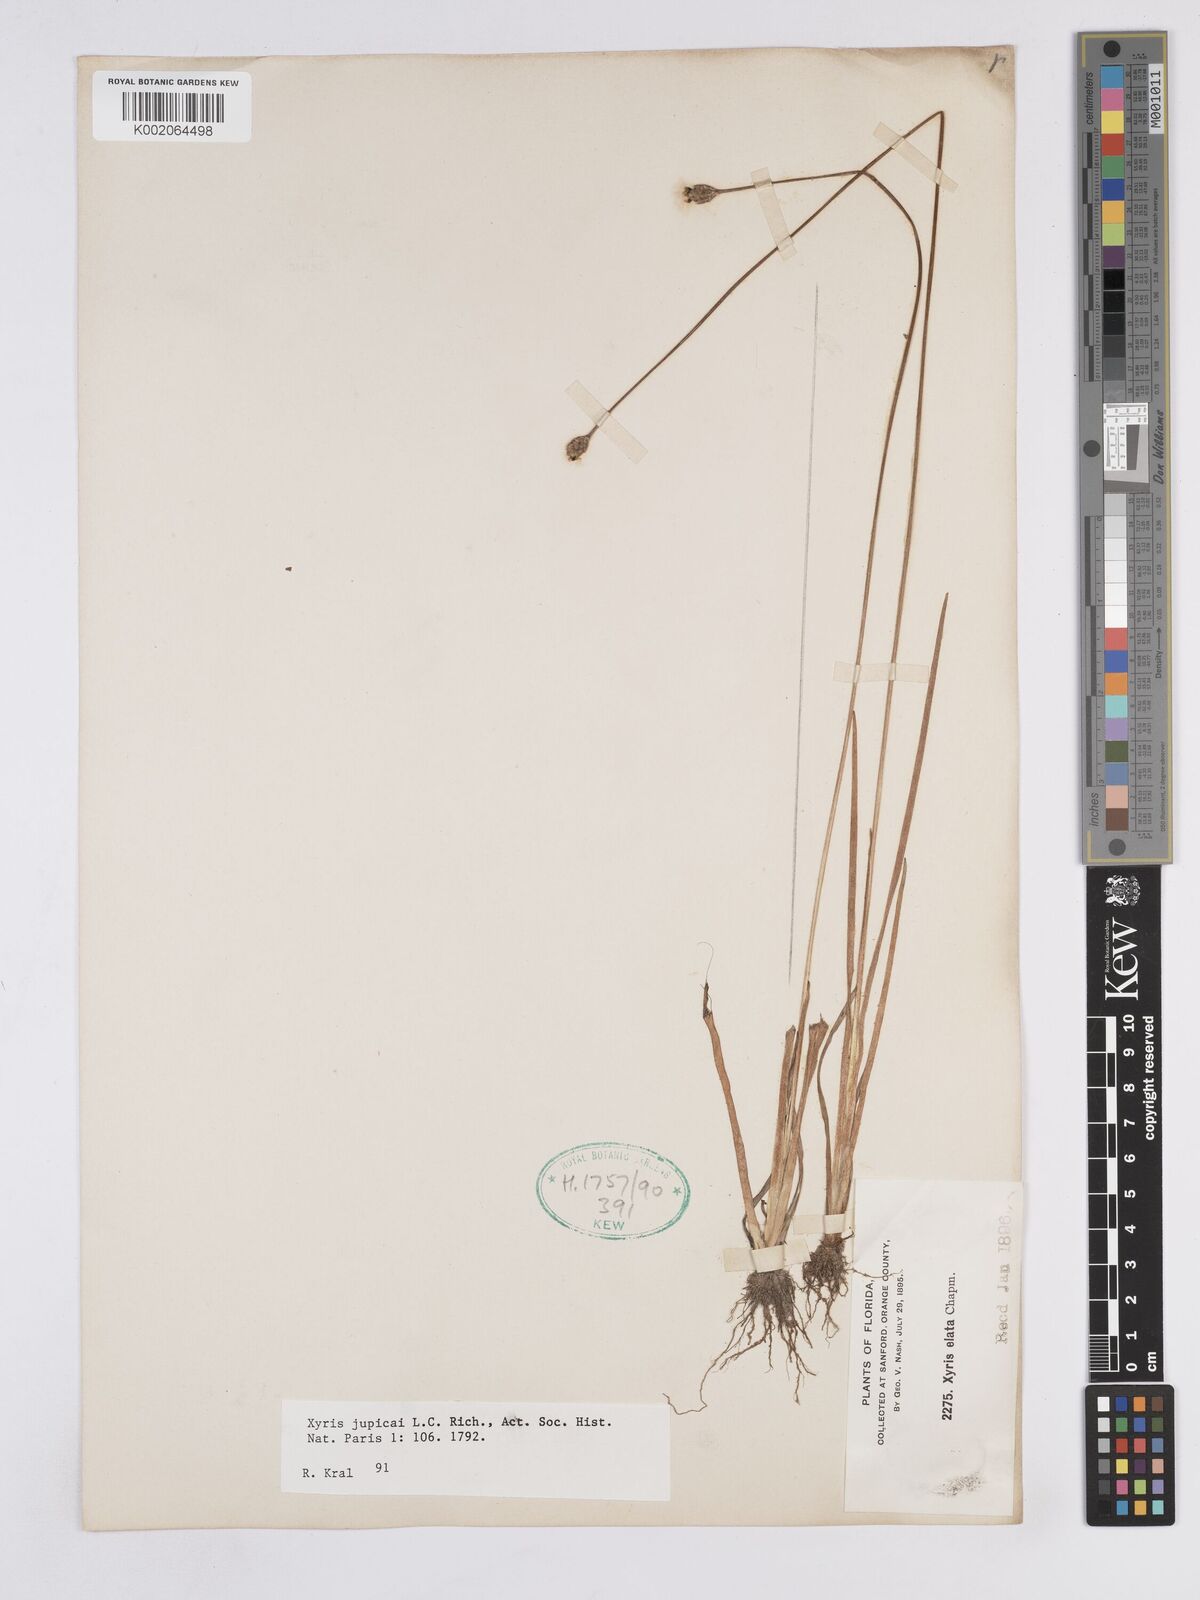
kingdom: Plantae
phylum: Tracheophyta
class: Liliopsida
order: Poales
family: Xyridaceae
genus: Xyris
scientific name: Xyris jupicai
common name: Richard's yelloweyed grass
